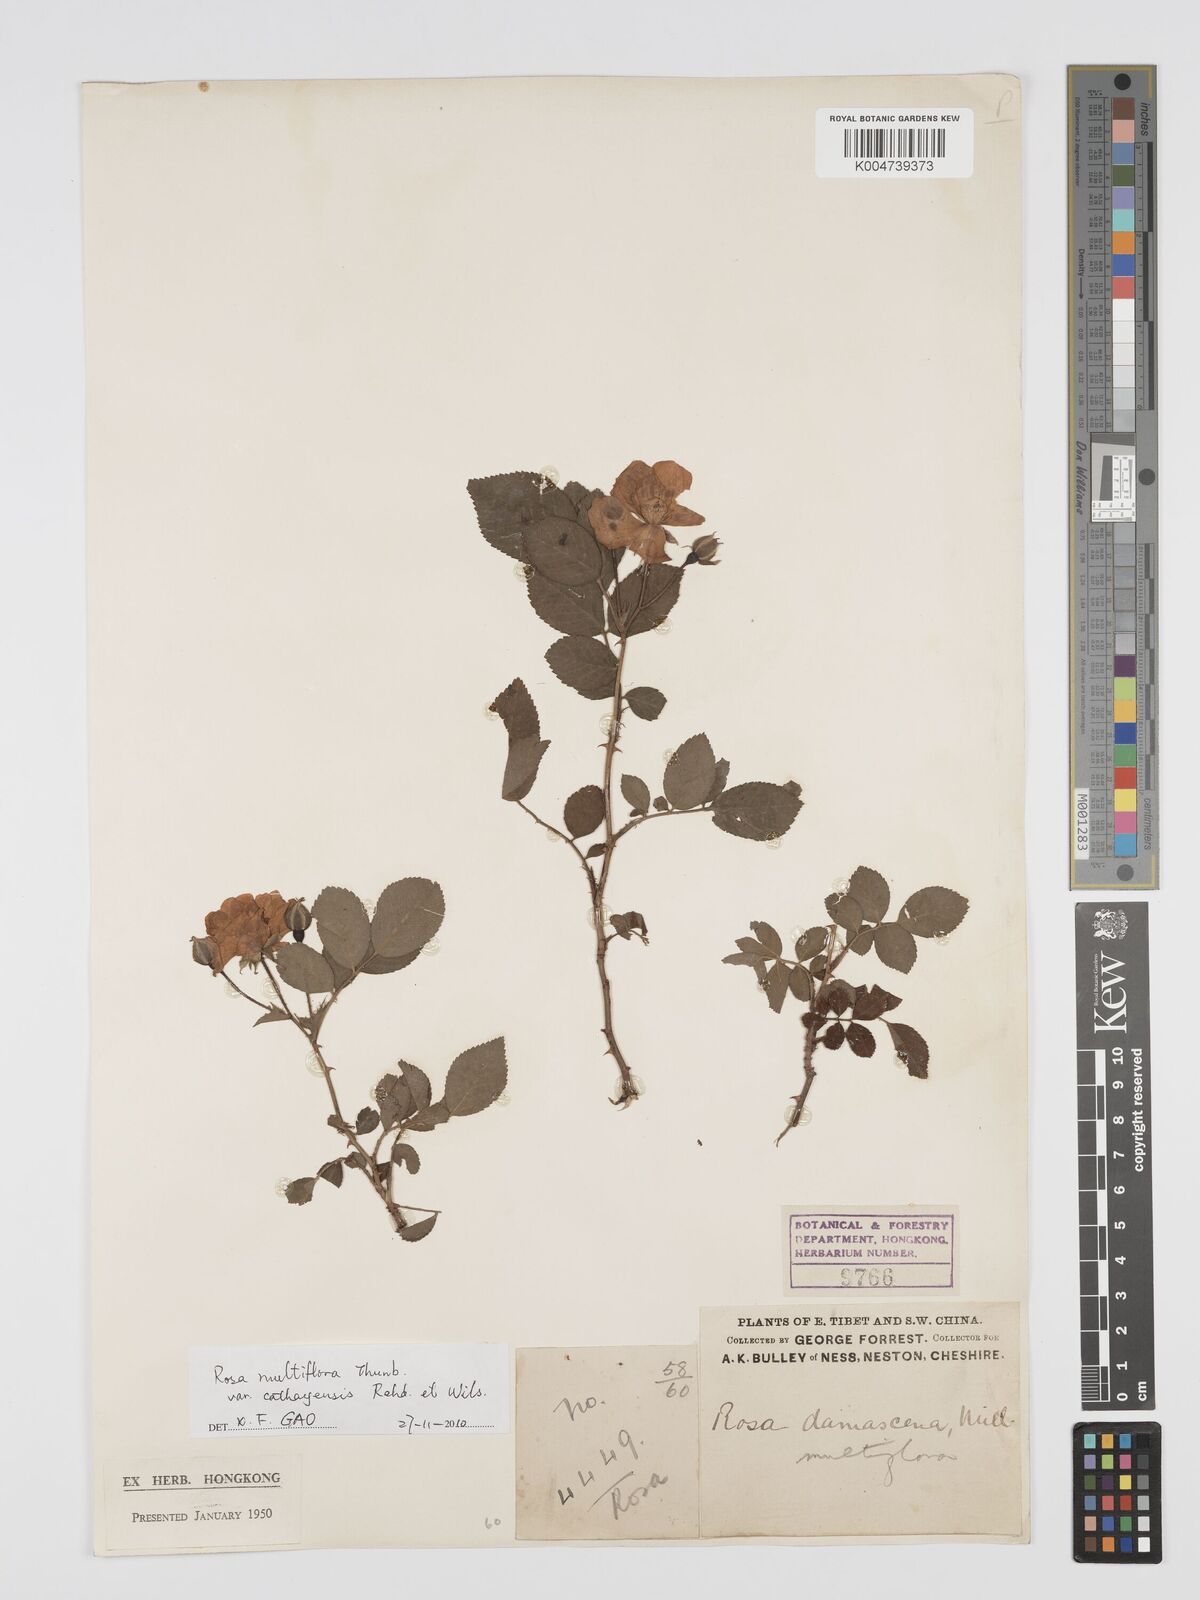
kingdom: Plantae
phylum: Tracheophyta
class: Magnoliopsida
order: Rosales
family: Rosaceae
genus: Rosa
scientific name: Rosa multiflora
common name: Multiflora rose
